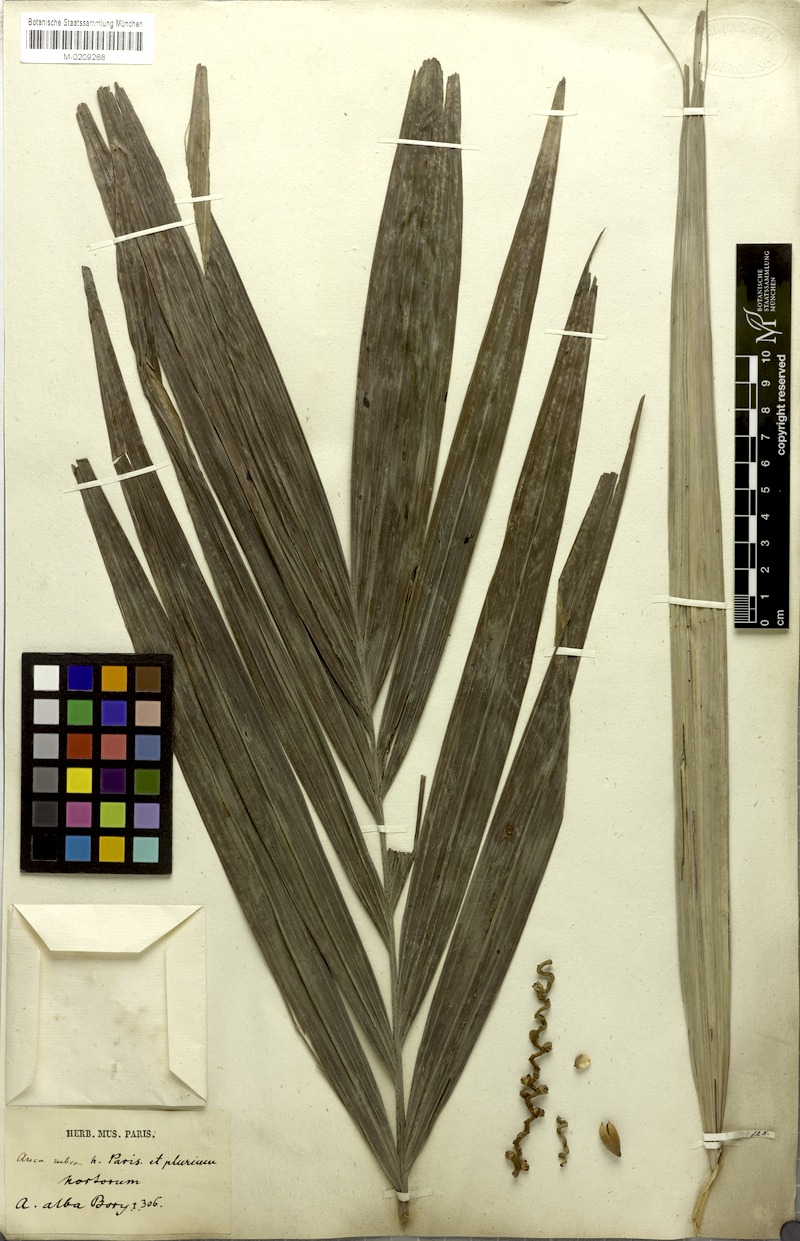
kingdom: Plantae
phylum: Tracheophyta
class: Liliopsida
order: Arecales
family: Arecaceae
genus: Dictyosperma
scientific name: Dictyosperma album
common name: Common princess palm
